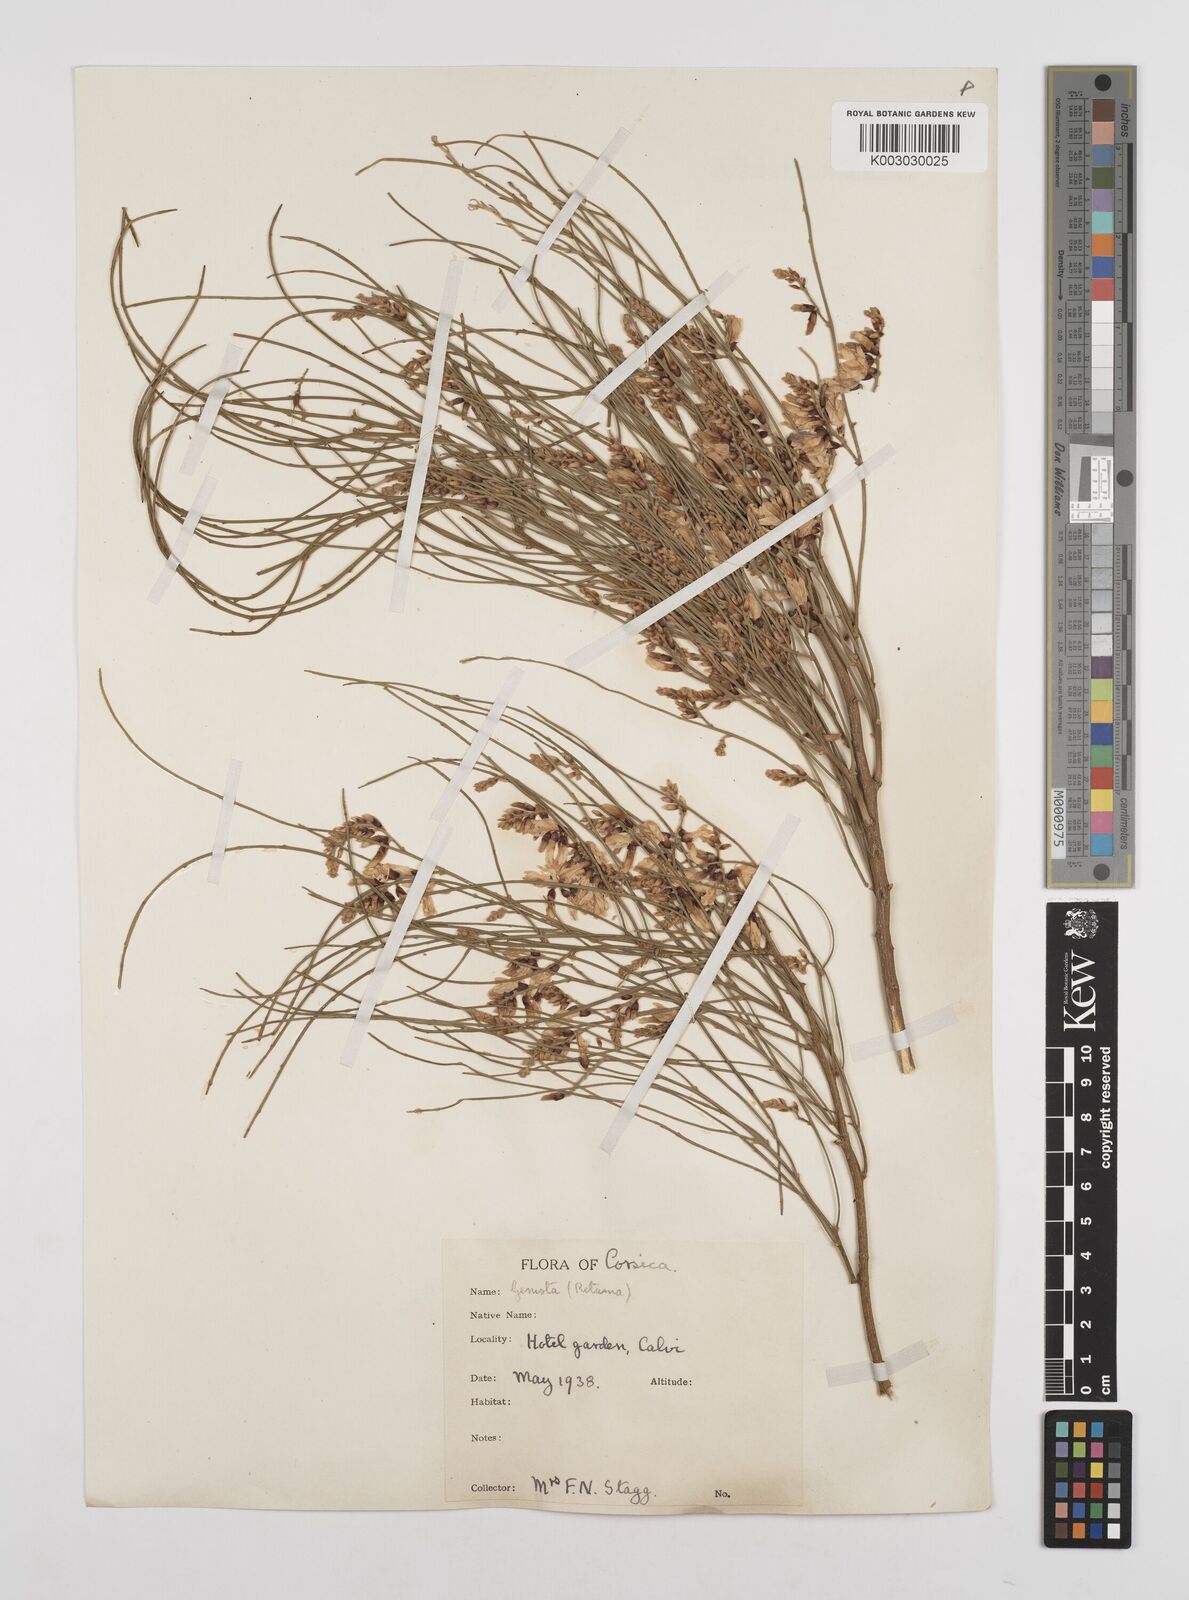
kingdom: Plantae
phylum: Tracheophyta
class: Magnoliopsida
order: Fabales
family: Fabaceae
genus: Genista
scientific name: Genista ephedroides
